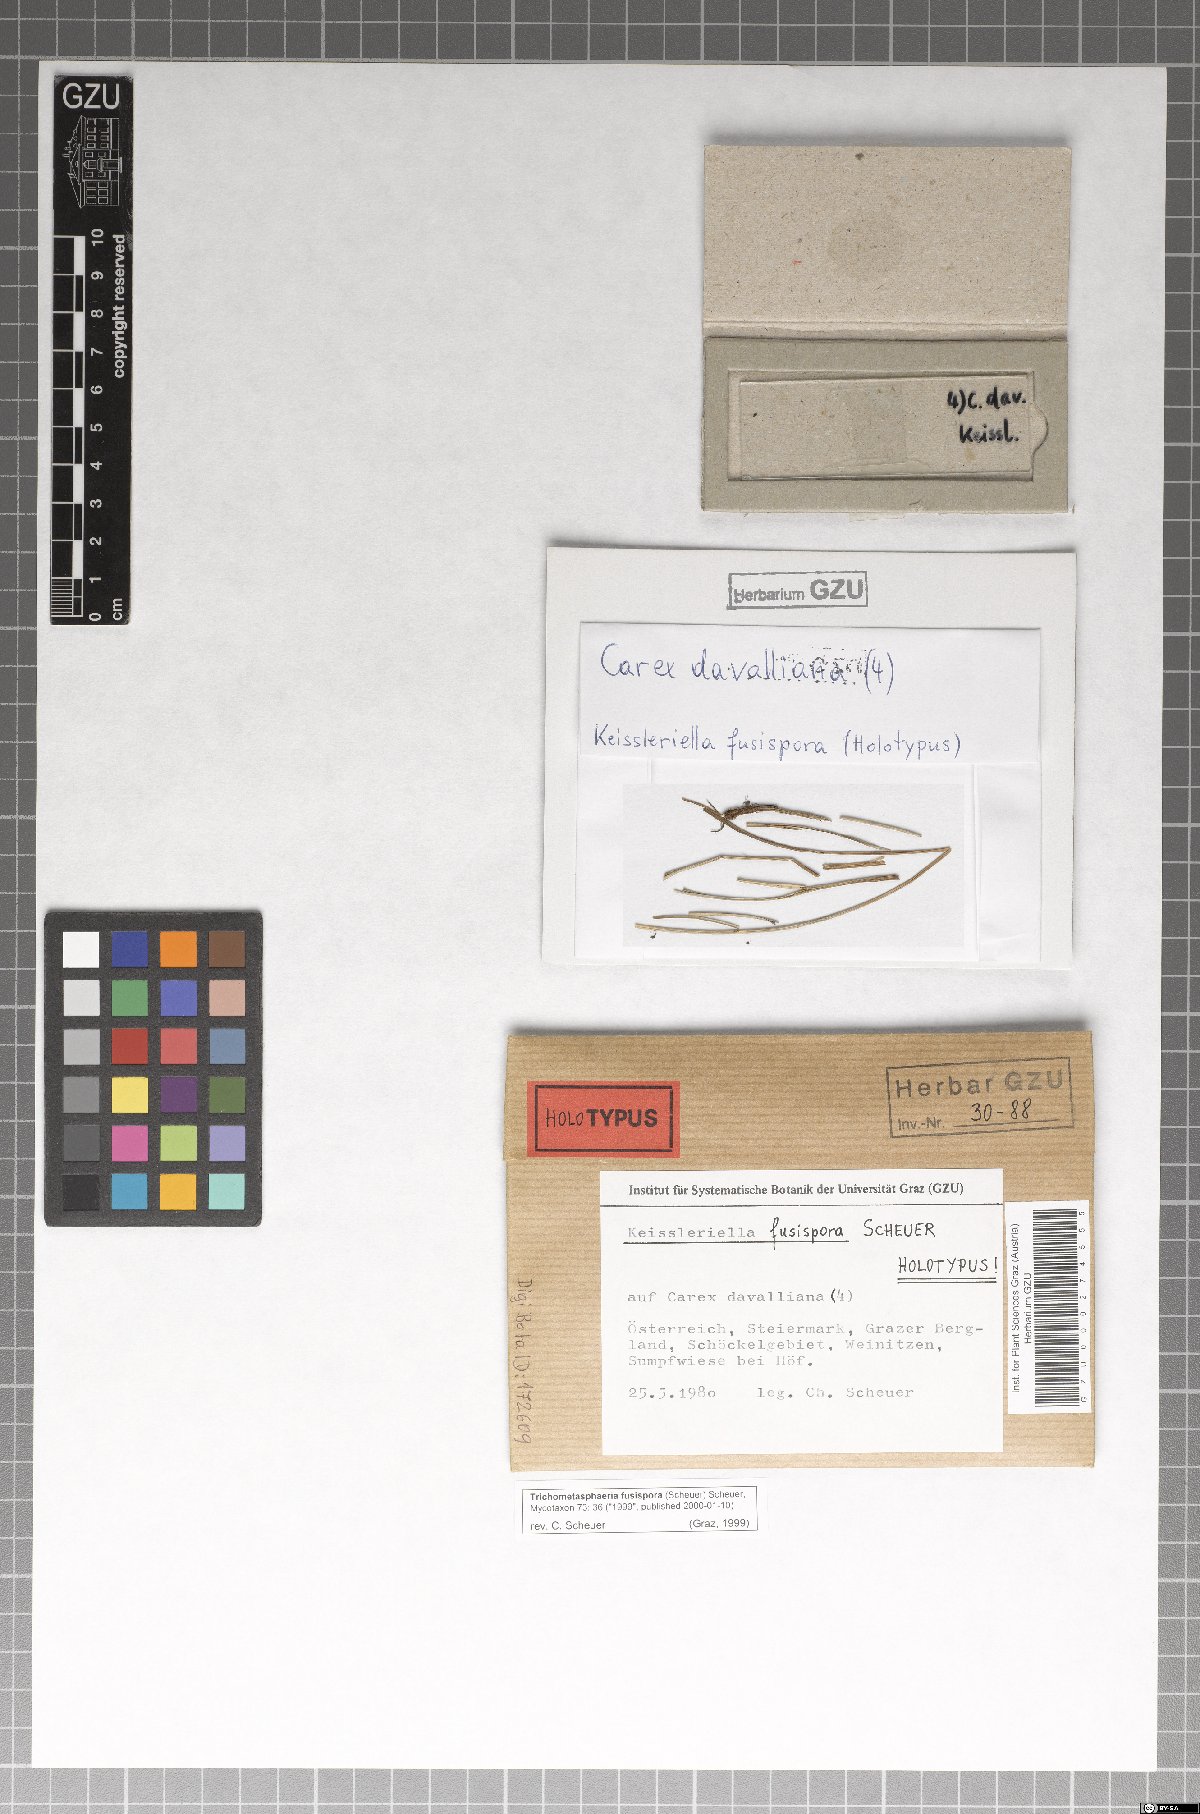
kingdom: Fungi
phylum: Ascomycota
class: Dothideomycetes
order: Pleosporales
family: Lophiostomataceae
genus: Trichometasphaeria
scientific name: Trichometasphaeria fusispora
